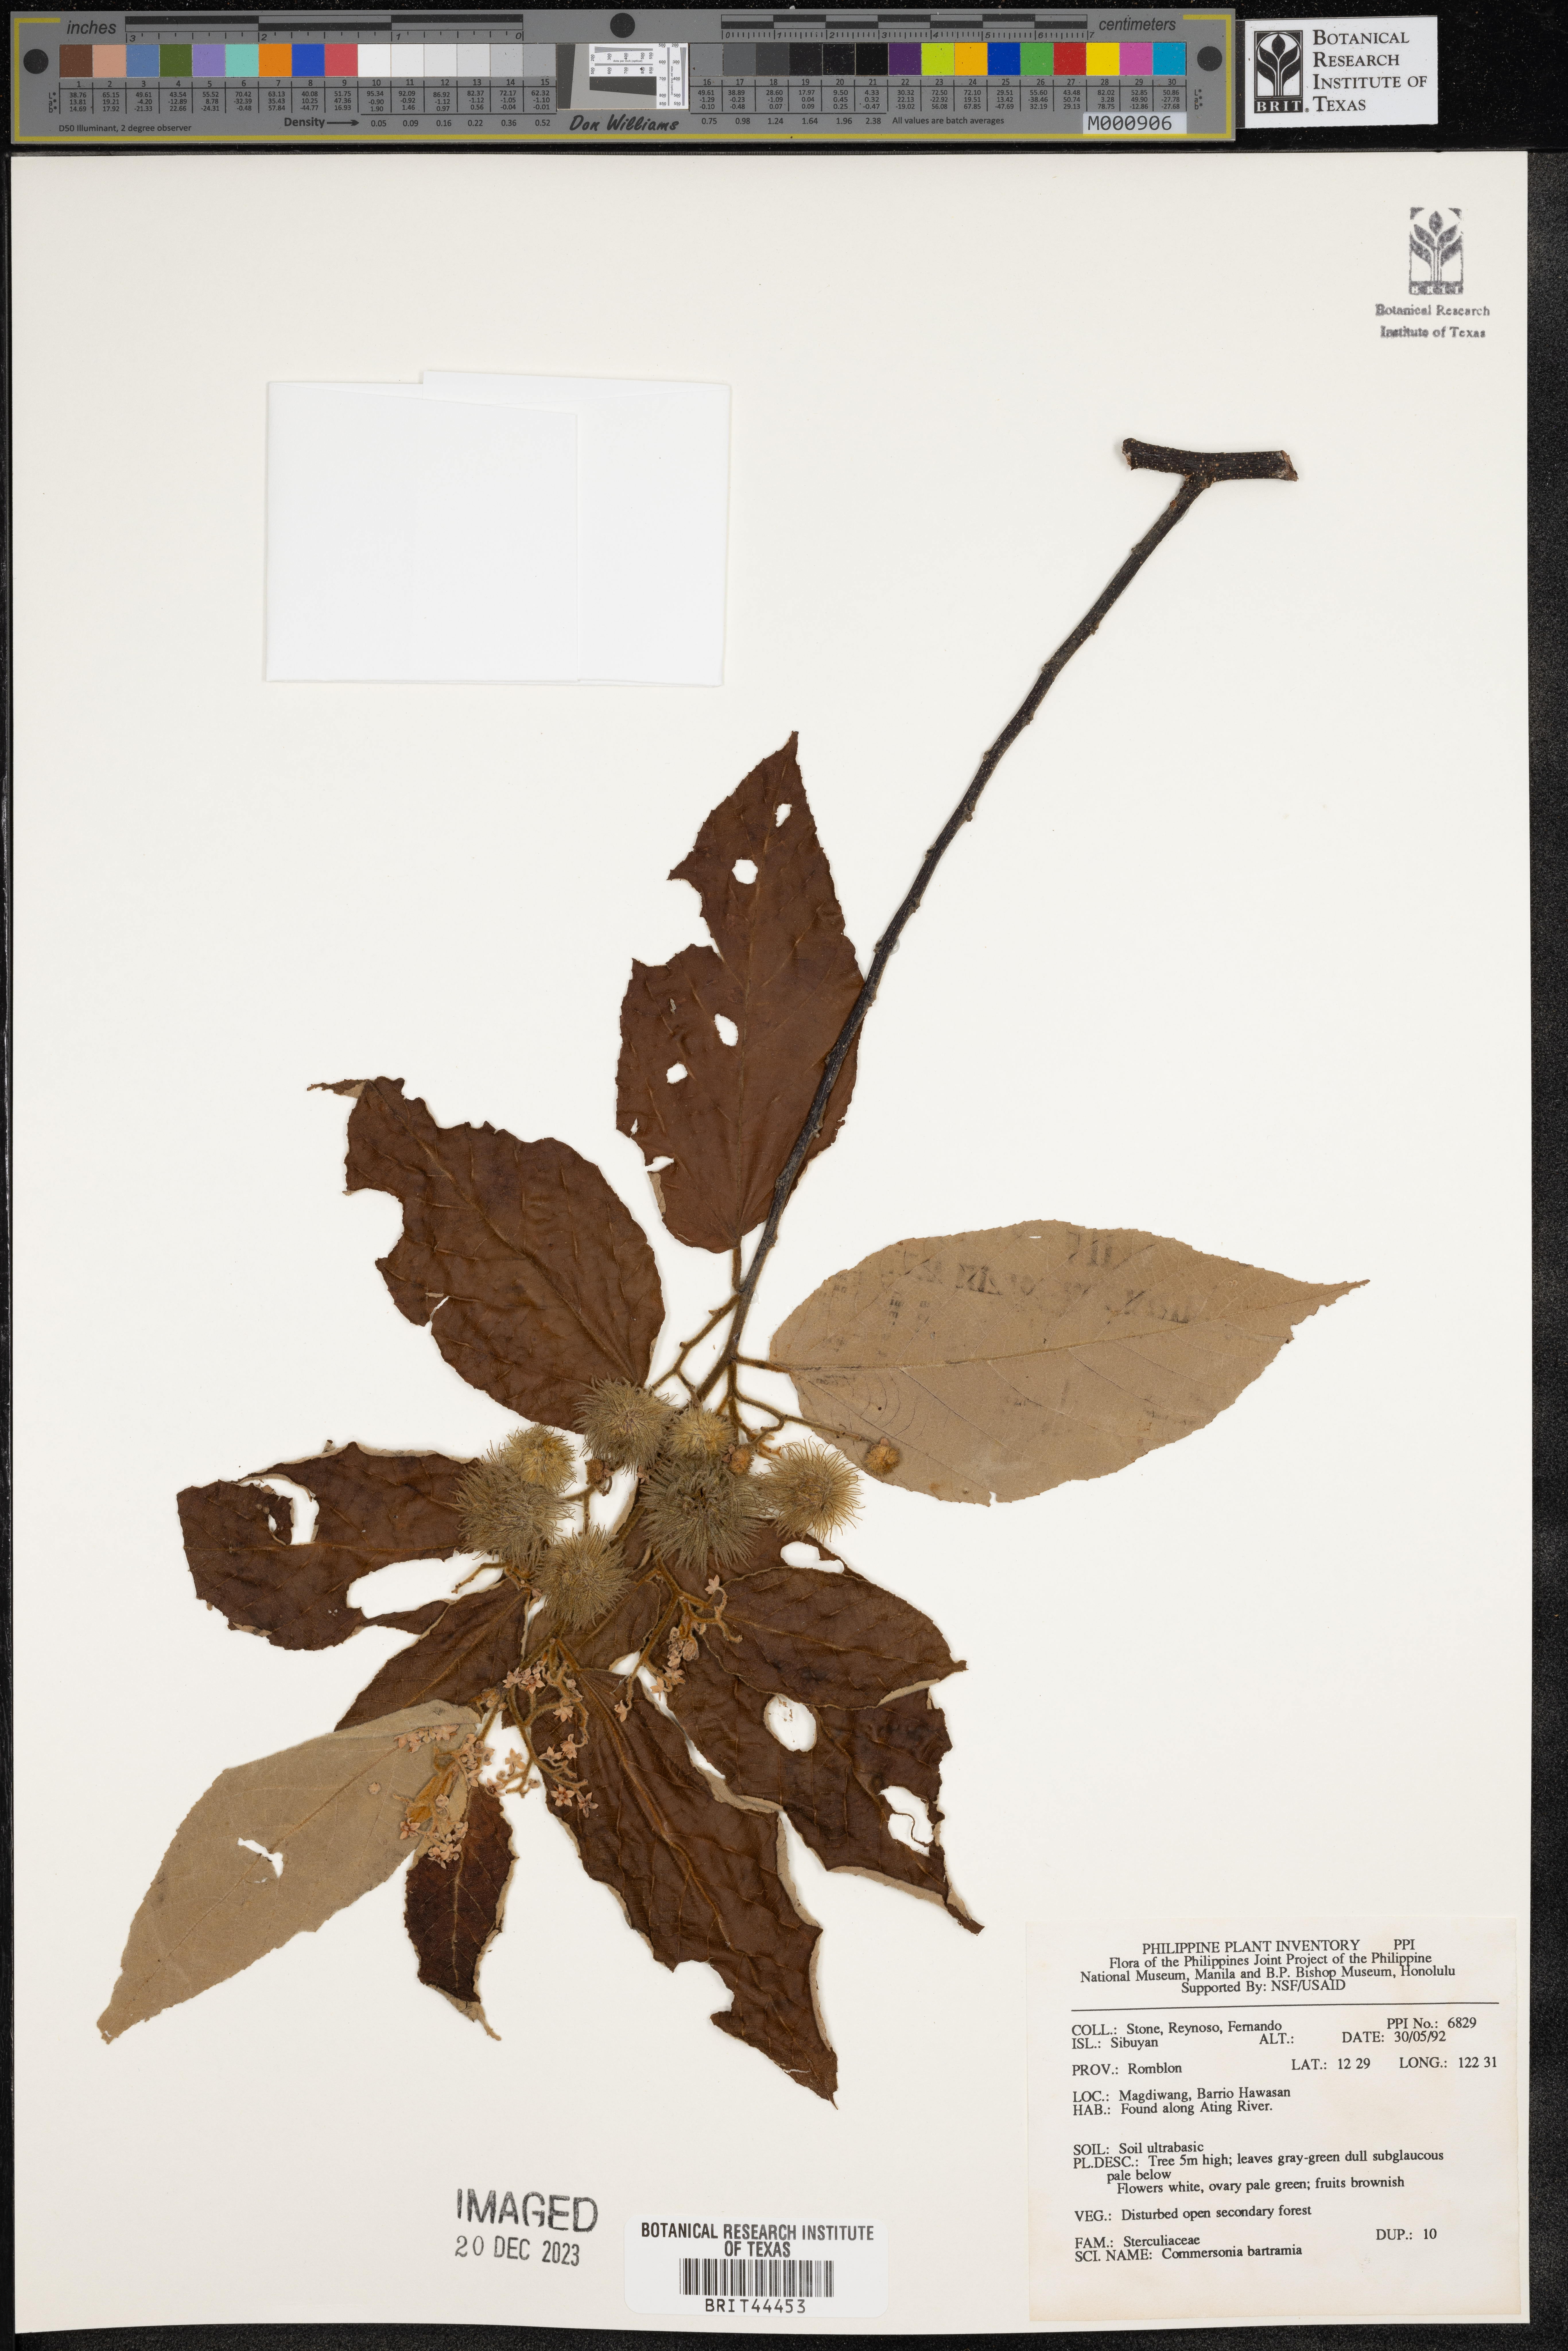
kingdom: Plantae
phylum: Tracheophyta
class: Magnoliopsida
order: Malvales
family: Malvaceae
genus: Commersonia
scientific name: Commersonia bartramia
